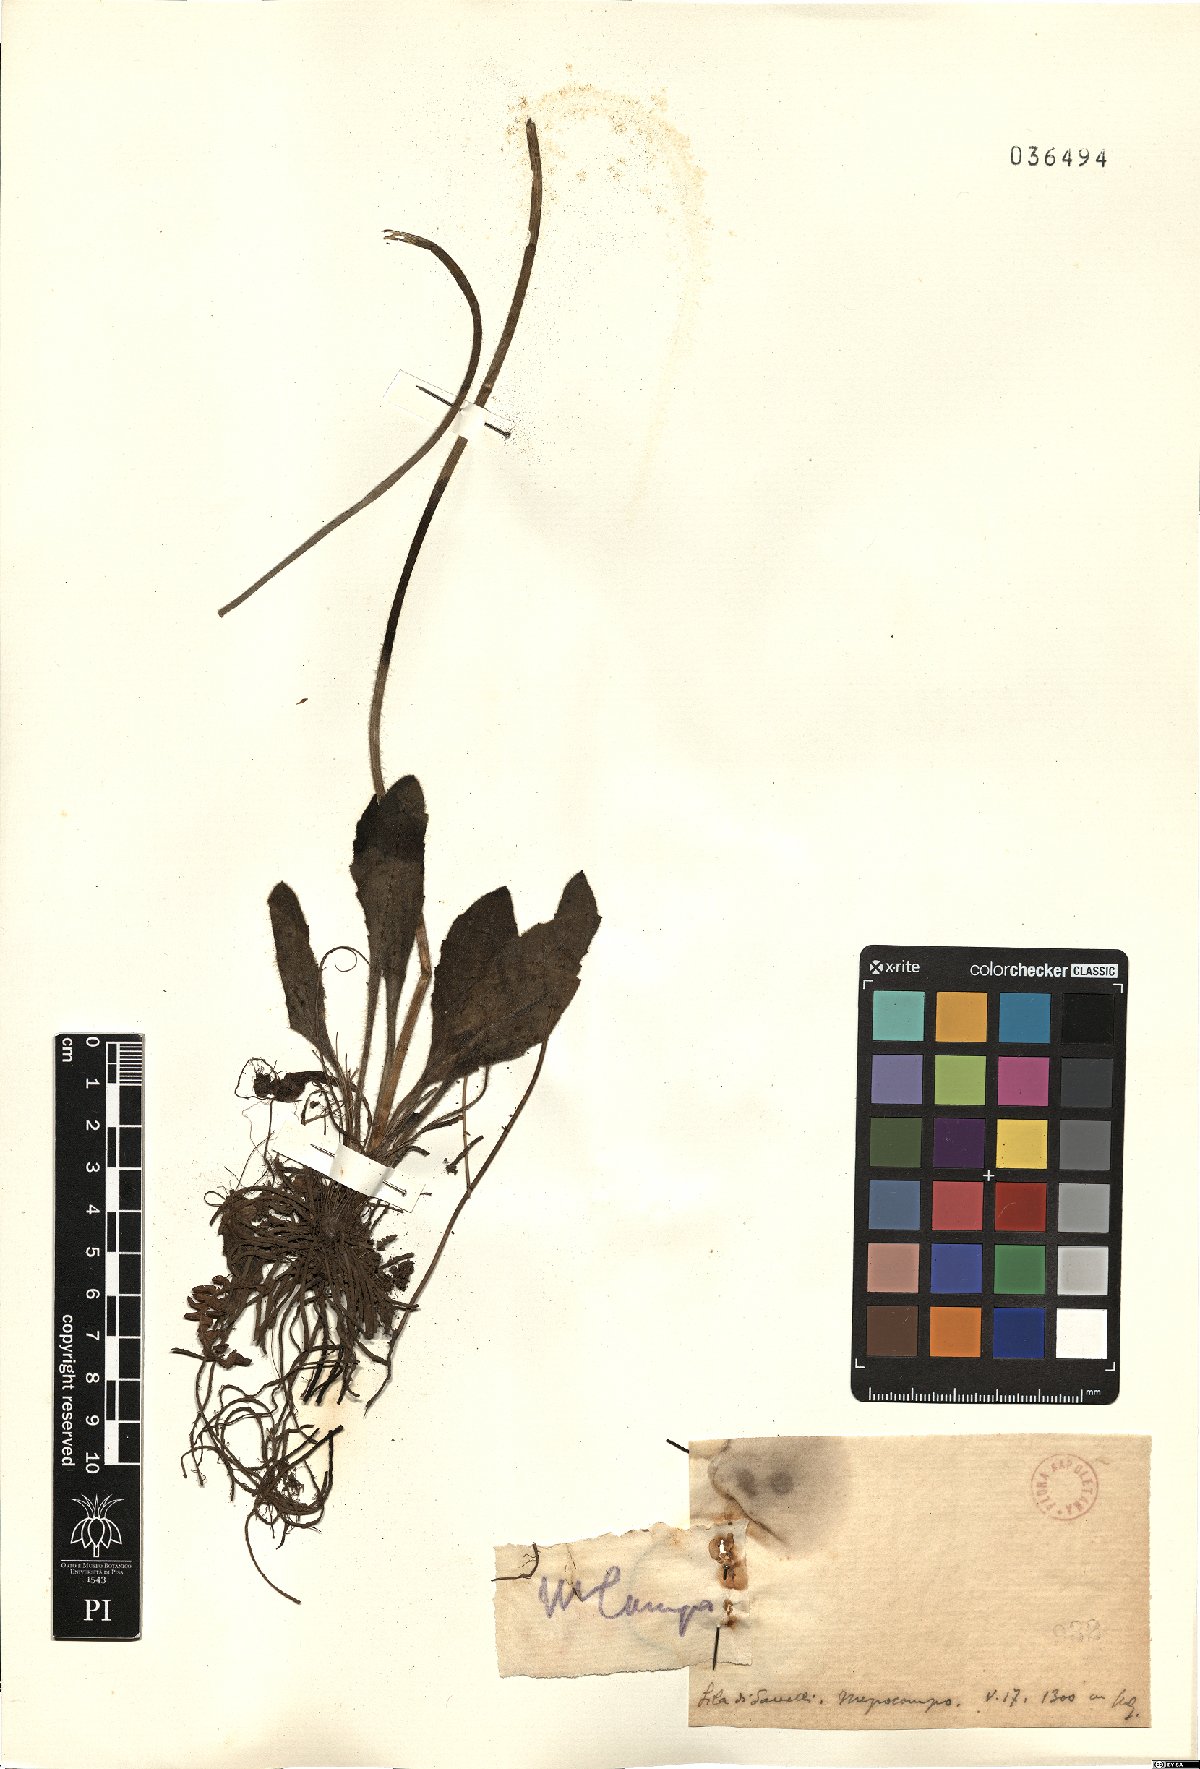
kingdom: Plantae
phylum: Tracheophyta
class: Magnoliopsida
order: Asterales
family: Asteraceae
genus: Bellis
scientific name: Bellis
